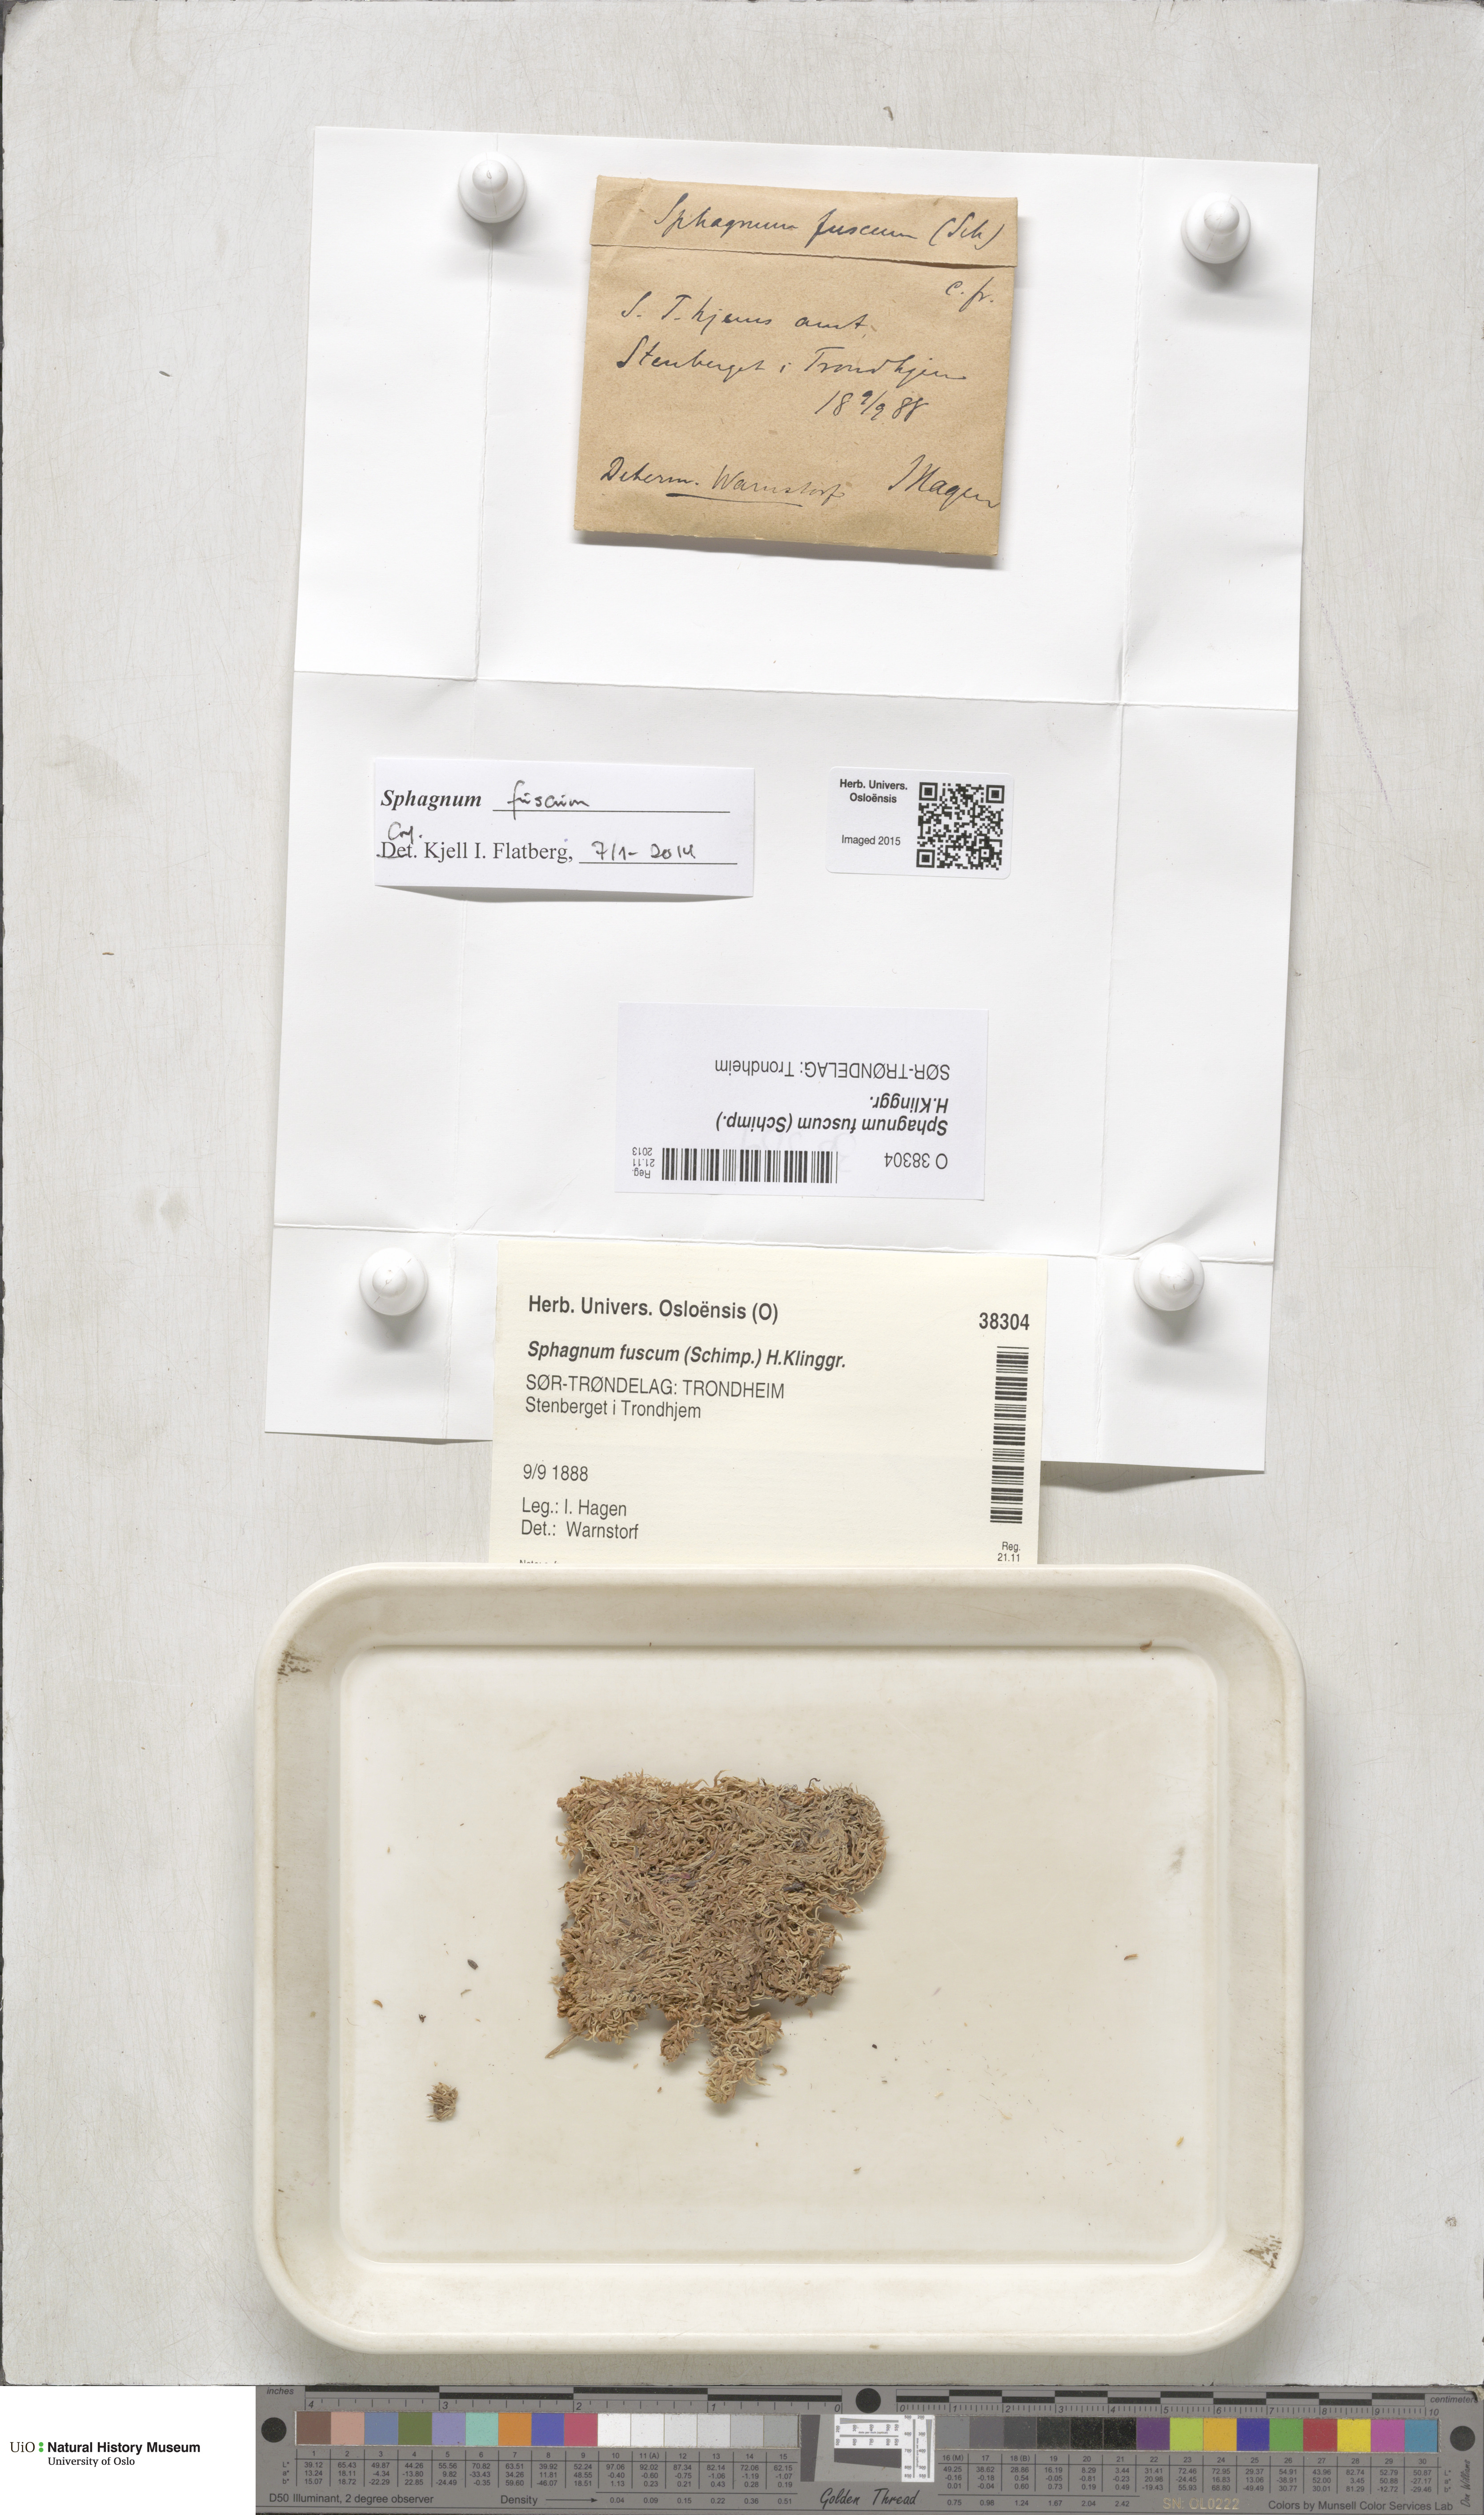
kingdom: Plantae
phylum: Bryophyta
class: Sphagnopsida
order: Sphagnales
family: Sphagnaceae
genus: Sphagnum
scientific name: Sphagnum fuscum
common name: Brown peat moss
